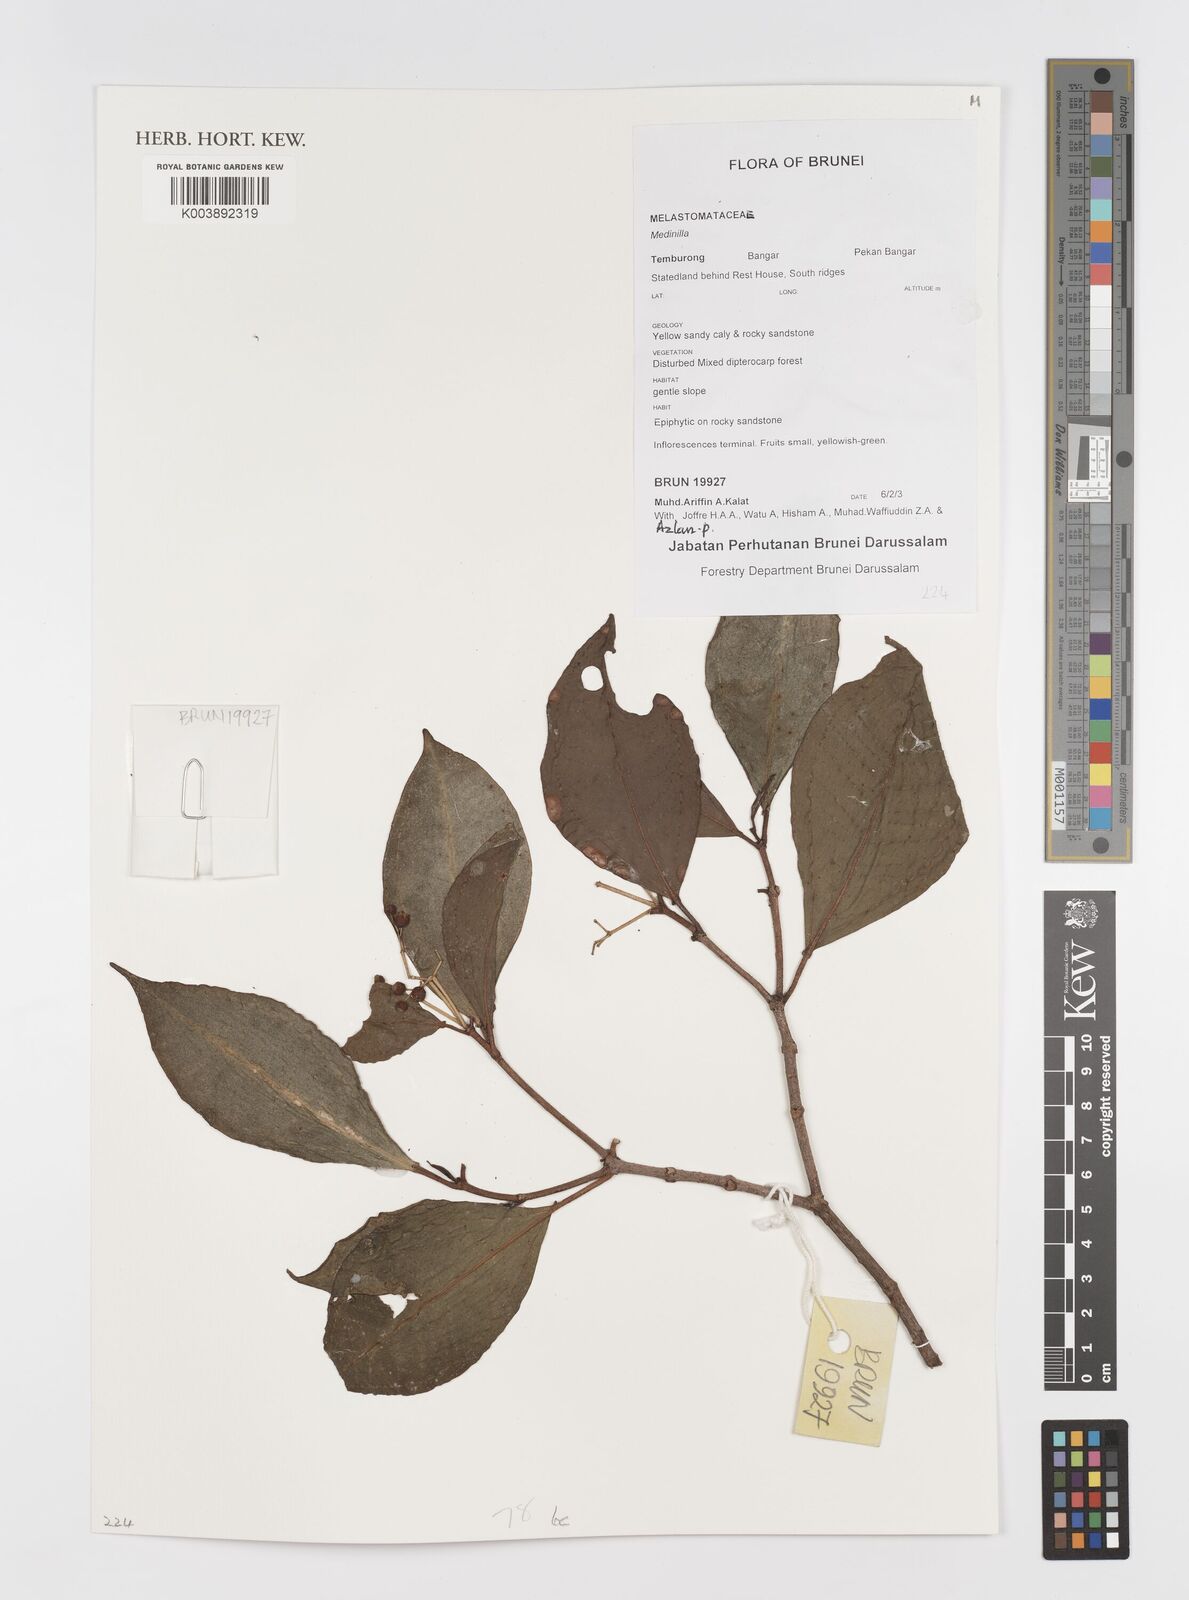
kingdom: Plantae
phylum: Tracheophyta
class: Magnoliopsida
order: Myrtales
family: Melastomataceae
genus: Medinilla
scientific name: Medinilla
